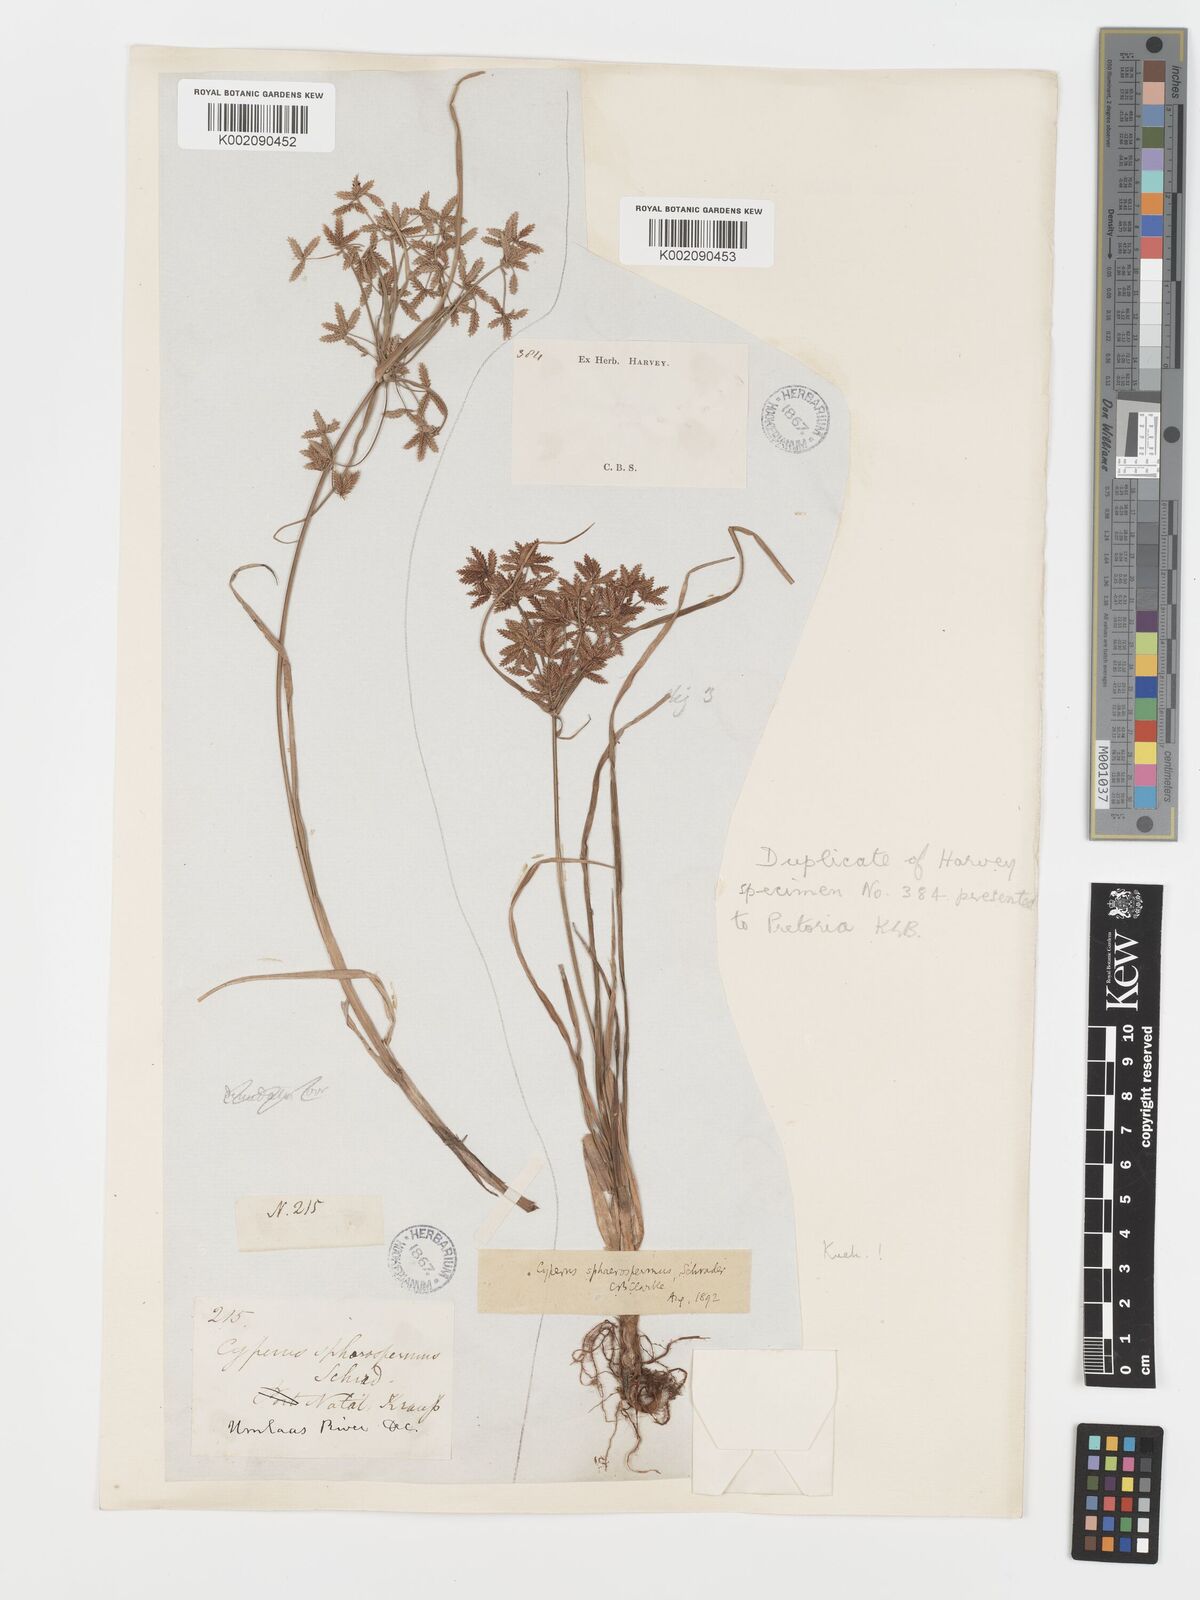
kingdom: Plantae
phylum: Tracheophyta
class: Liliopsida
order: Poales
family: Cyperaceae
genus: Cyperus
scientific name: Cyperus sphaerospermus
